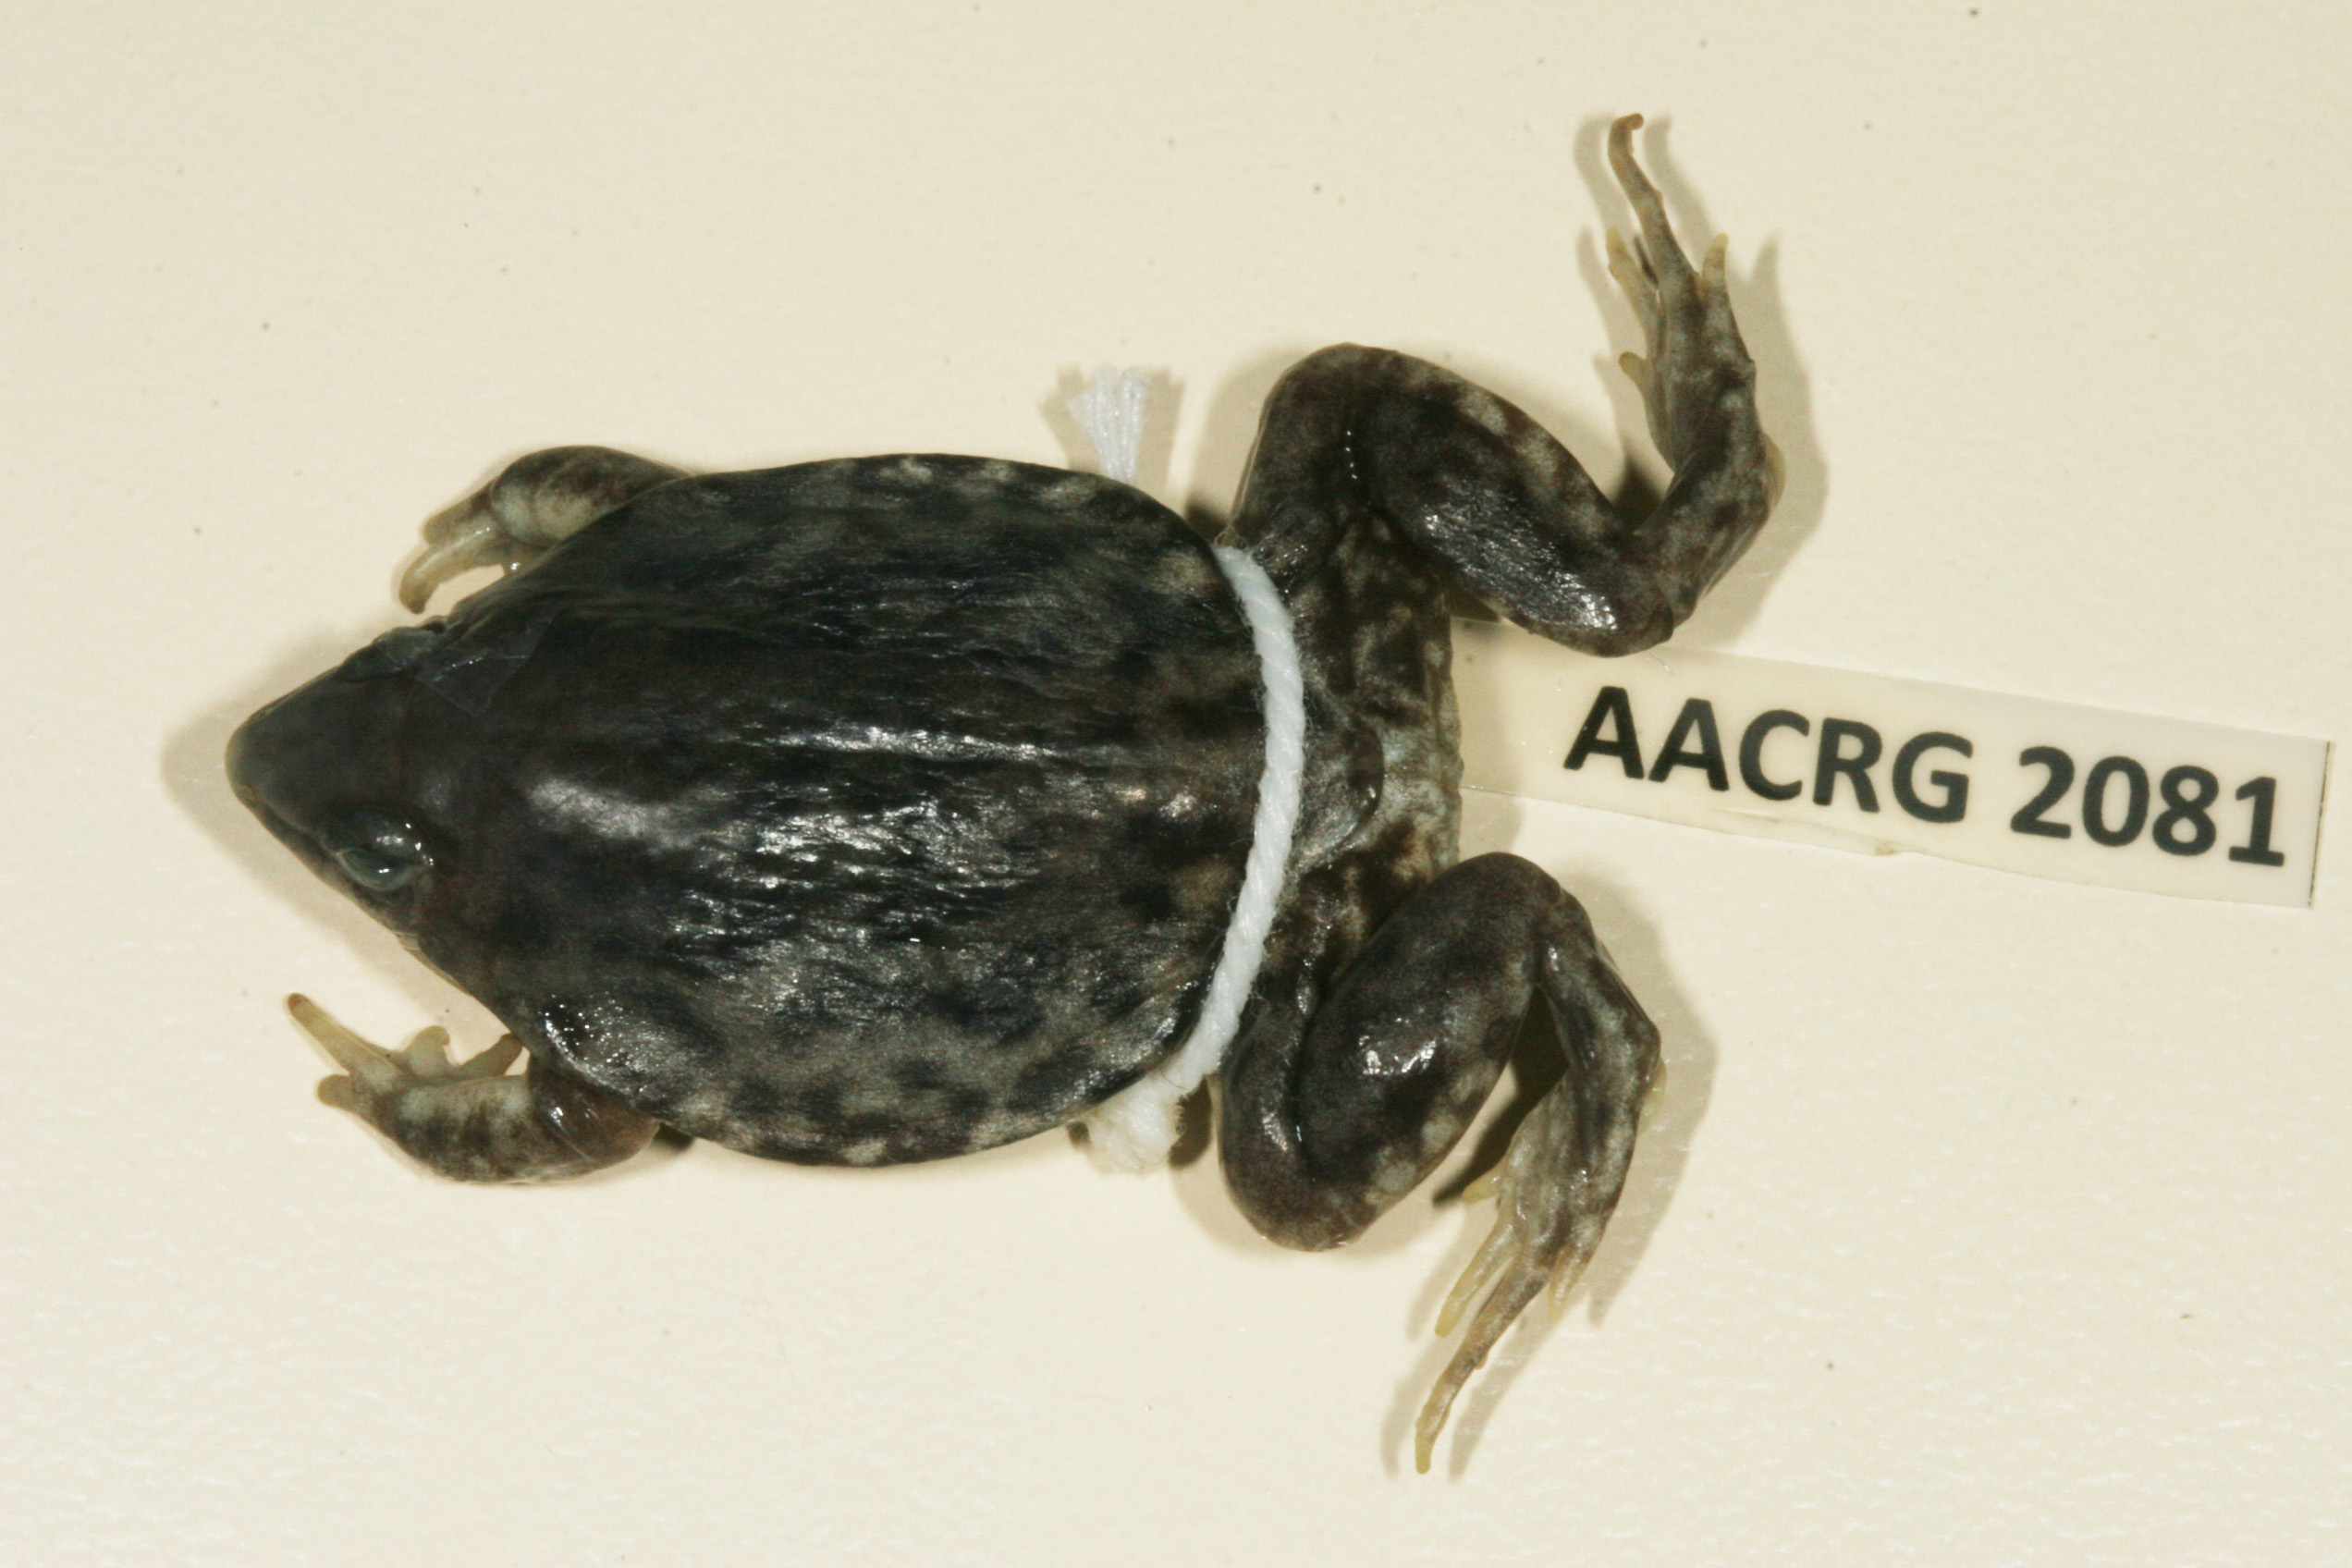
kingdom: Animalia
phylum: Chordata
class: Amphibia
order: Anura
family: Hemisotidae
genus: Hemisus
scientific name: Hemisus marmoratus
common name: Mottled shovel-nosed frog
